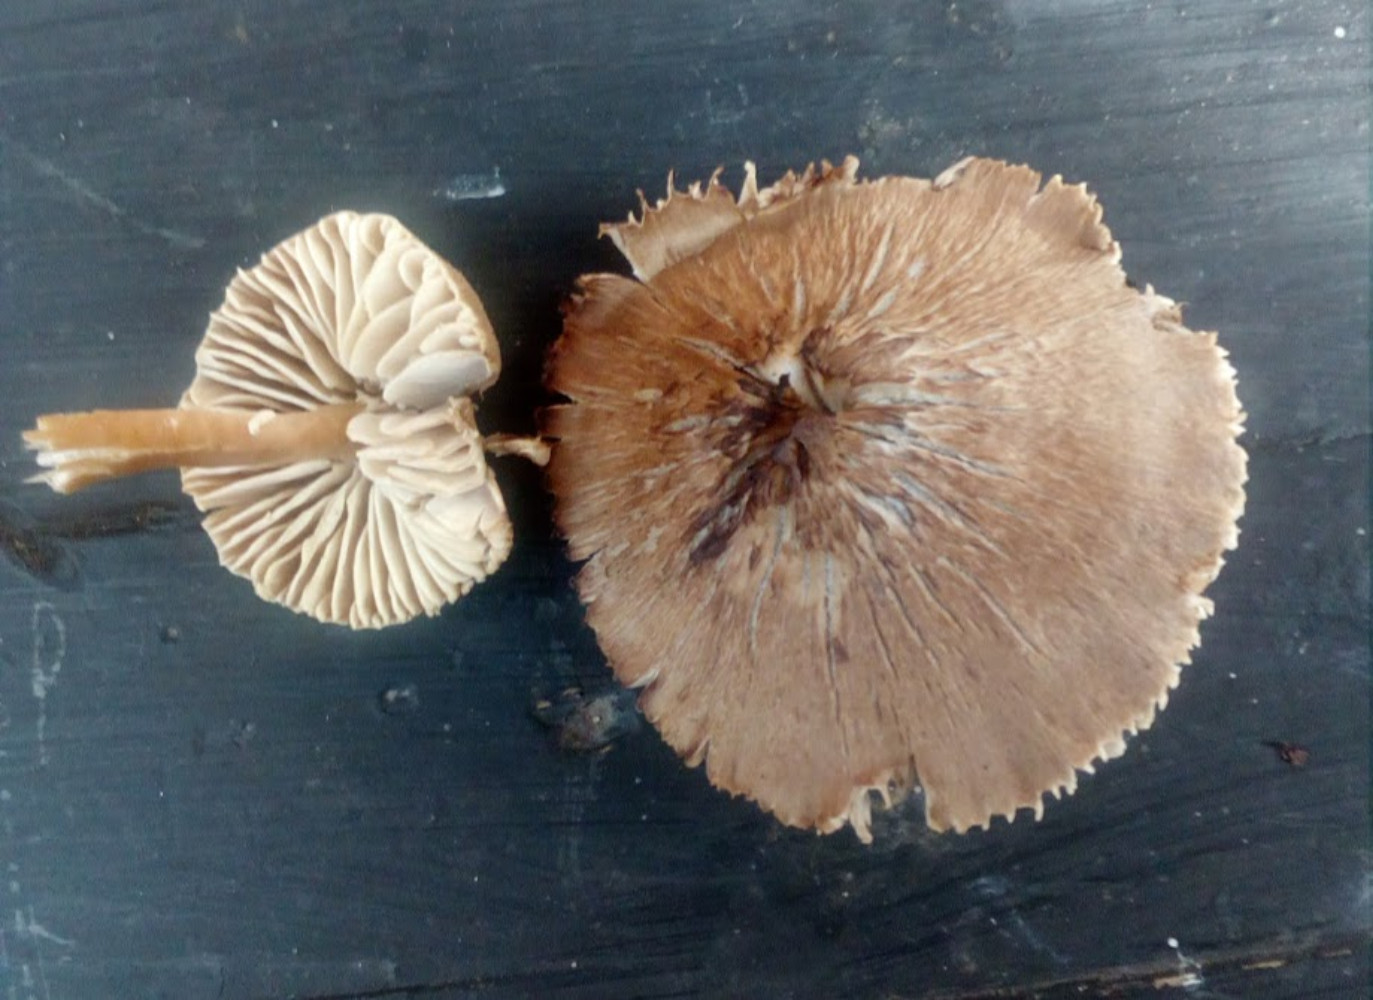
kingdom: Fungi
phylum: Basidiomycota
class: Agaricomycetes
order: Agaricales
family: Hygrophoraceae
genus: Neohygrocybe
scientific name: Neohygrocybe nitrata
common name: stinkende vokshat
